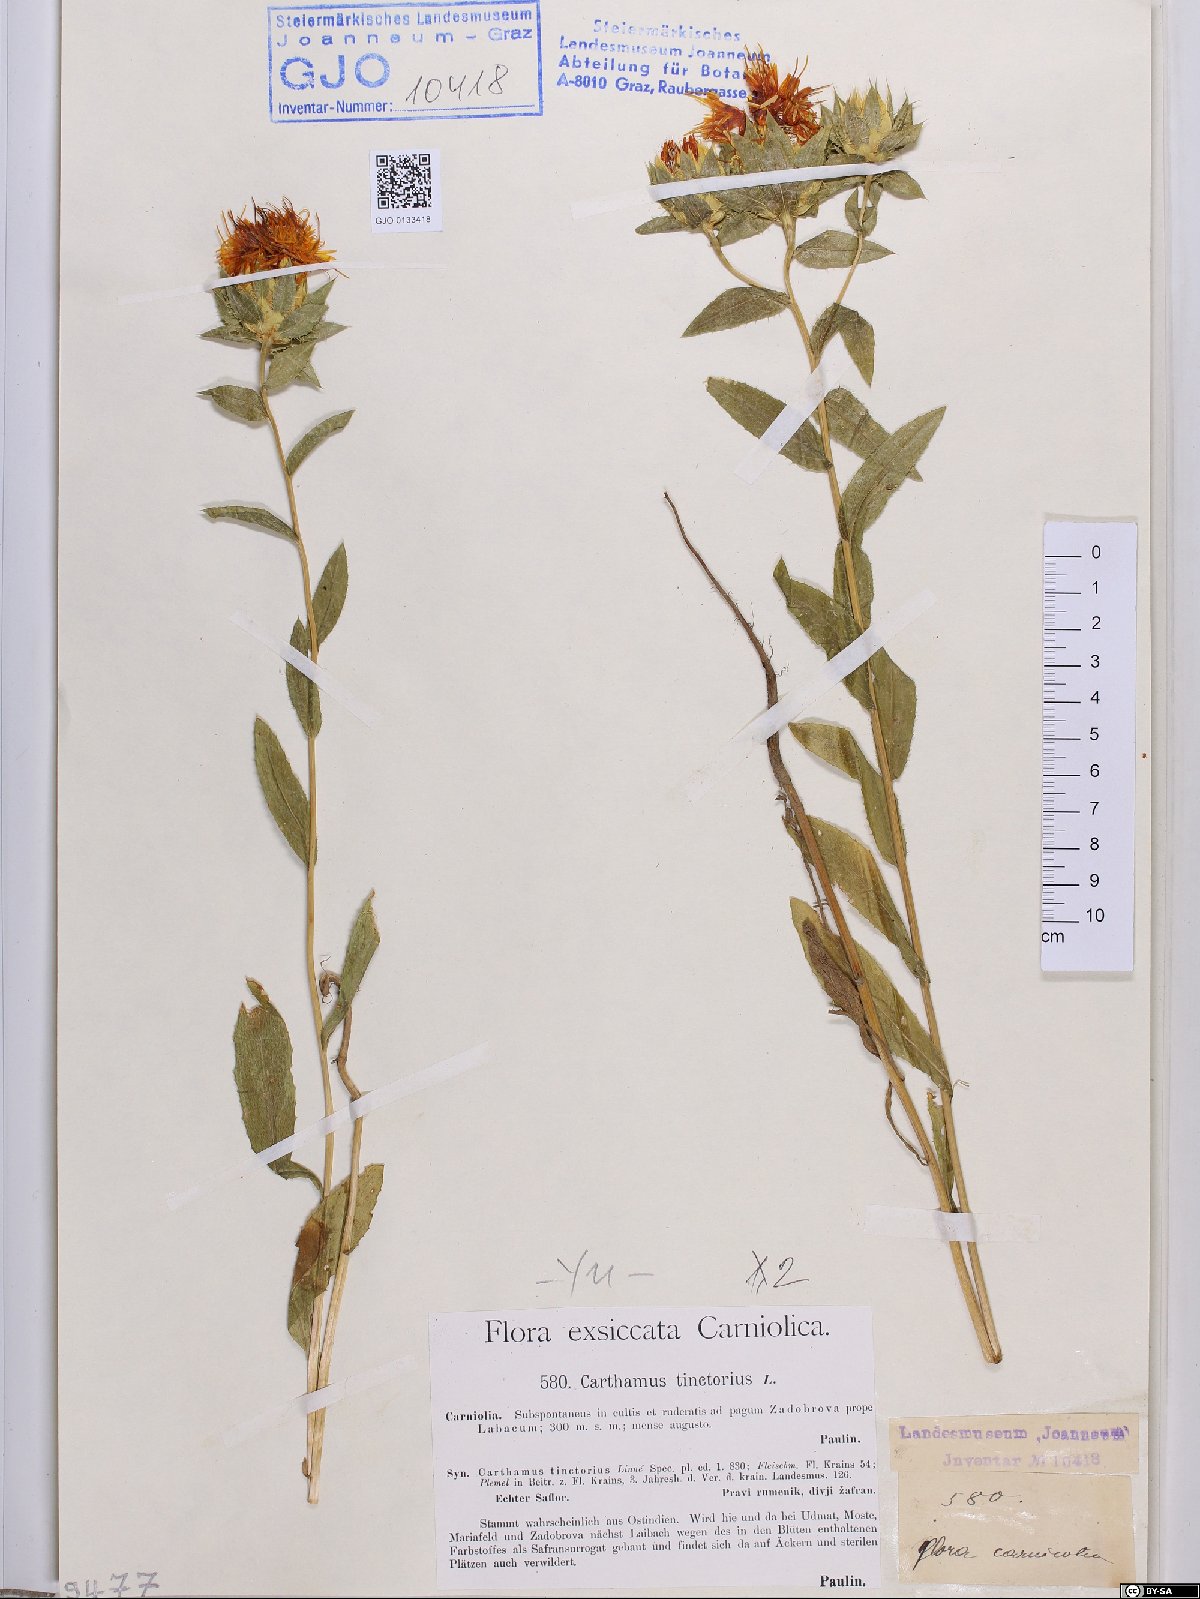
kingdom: Plantae
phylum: Tracheophyta
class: Magnoliopsida
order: Asterales
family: Asteraceae
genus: Carthamus
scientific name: Carthamus tinctorius
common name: Safflower
